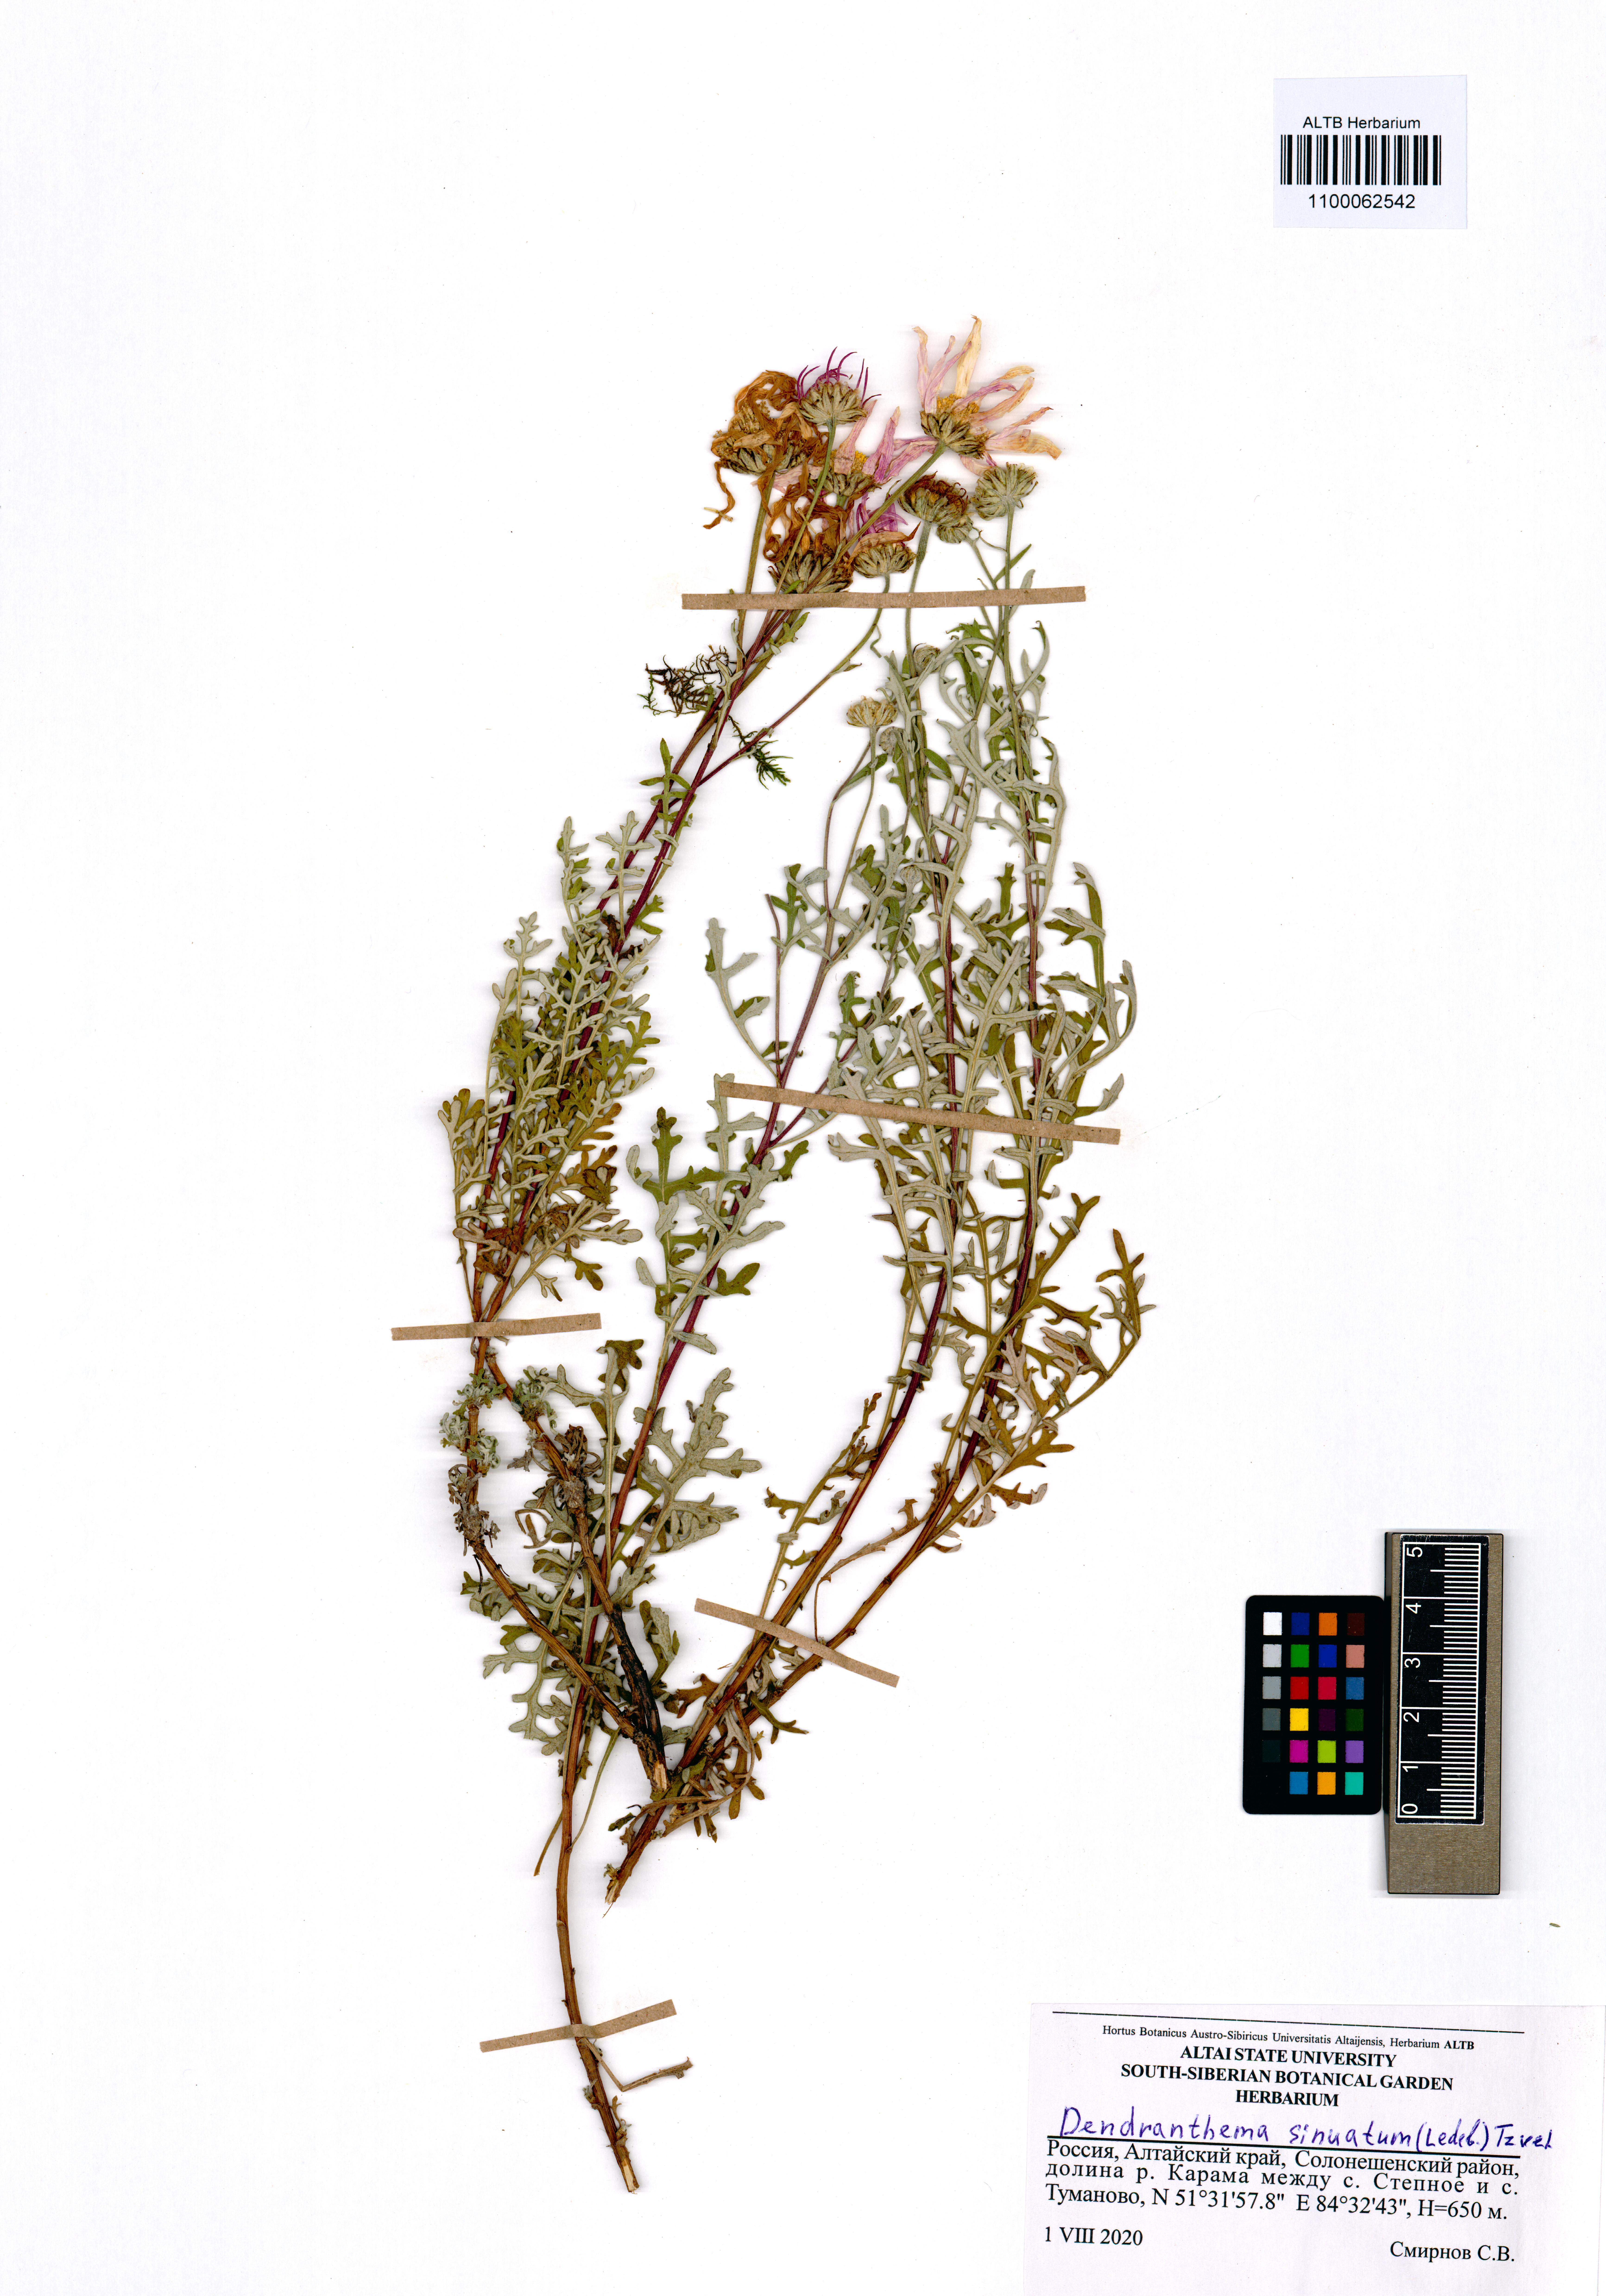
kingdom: Plantae
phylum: Tracheophyta
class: Magnoliopsida
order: Asterales
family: Asteraceae
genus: Chrysanthemum
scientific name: Chrysanthemum sinuatum
